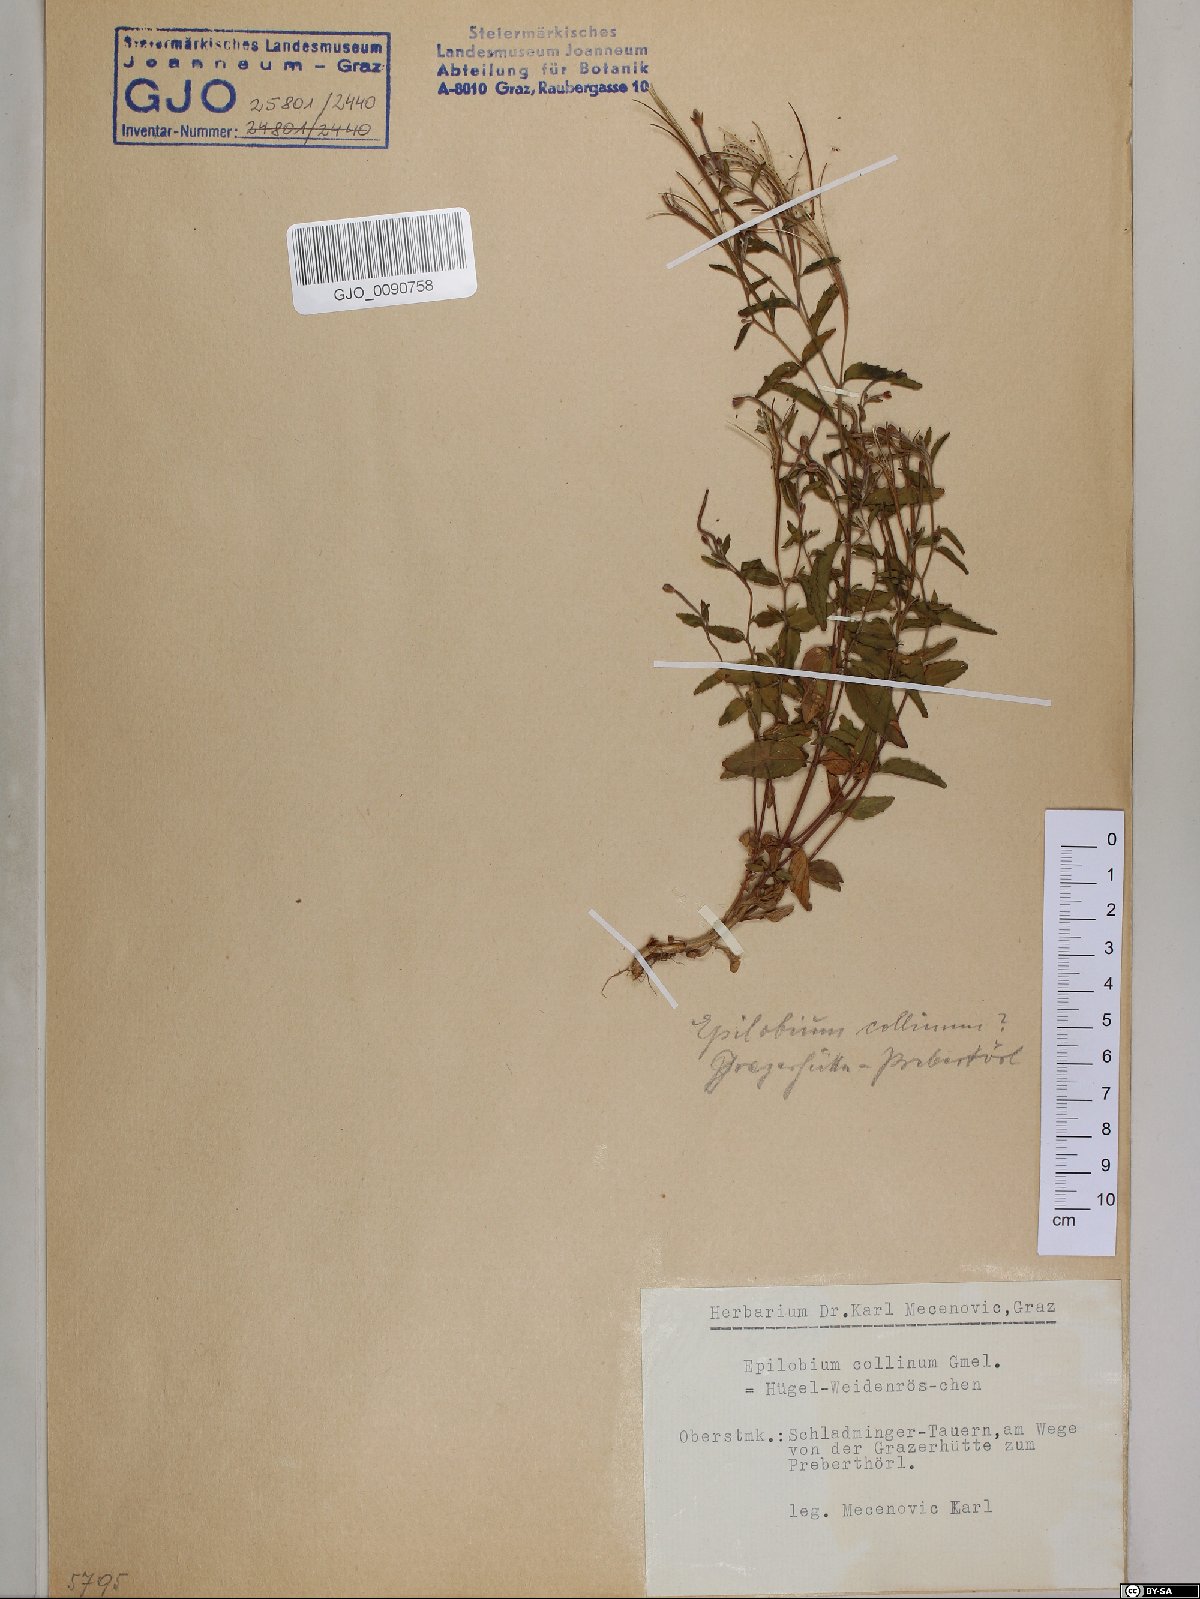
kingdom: Plantae
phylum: Tracheophyta
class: Magnoliopsida
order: Myrtales
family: Onagraceae
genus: Epilobium
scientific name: Epilobium collinum
